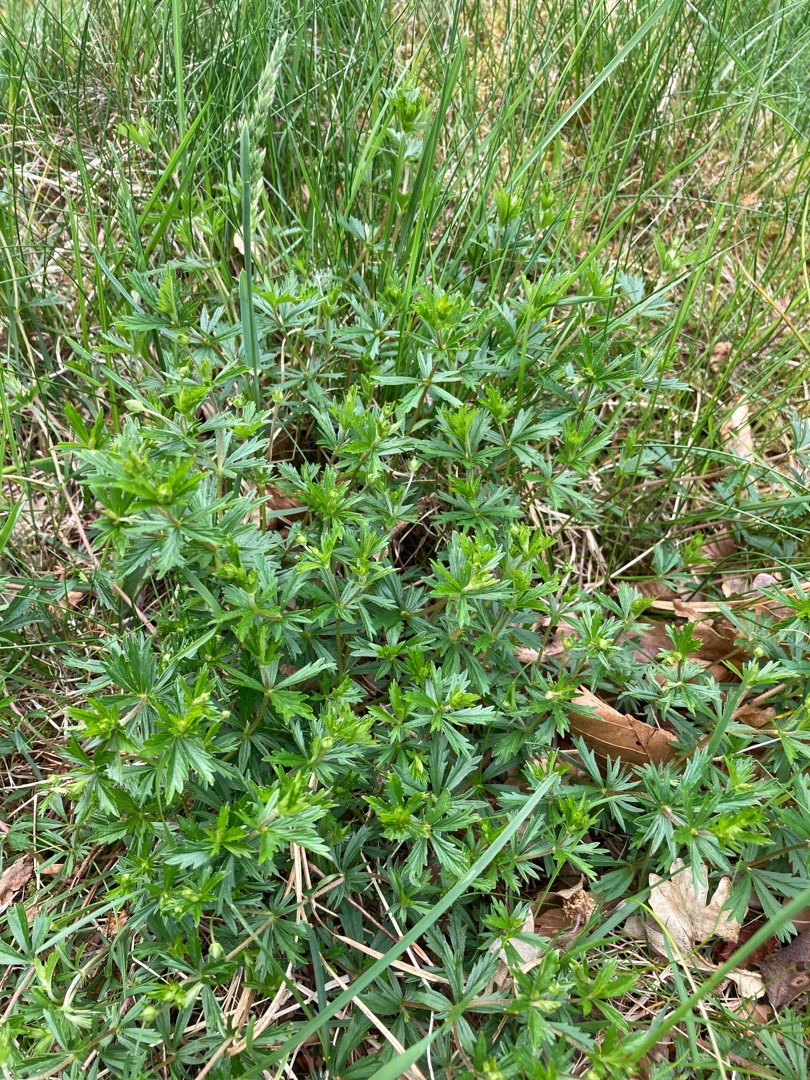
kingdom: Animalia
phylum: Chordata
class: Aves
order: Passeriformes
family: Corvidae
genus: Garrulus
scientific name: Garrulus glandarius
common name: Skovskade
